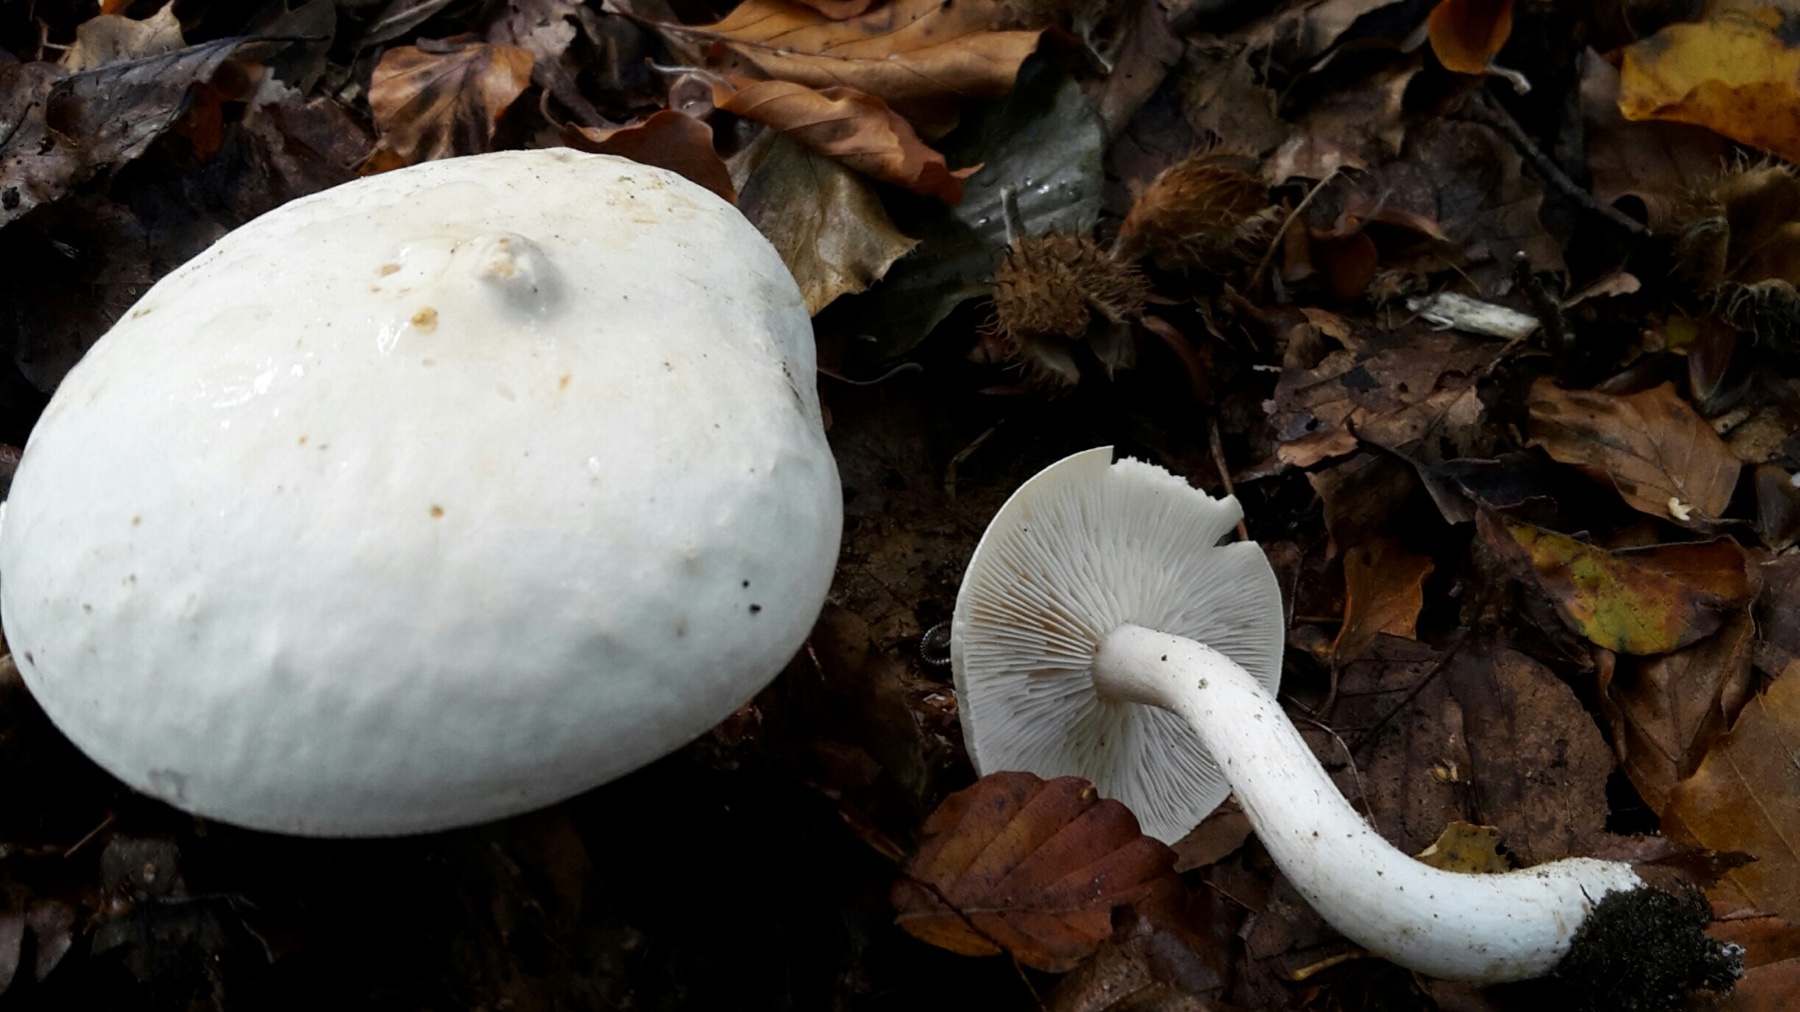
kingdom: Fungi
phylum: Basidiomycota
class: Agaricomycetes
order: Agaricales
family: Tricholomataceae
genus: Tricholoma
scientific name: Tricholoma stiparophyllum
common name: hvid ridderhat
